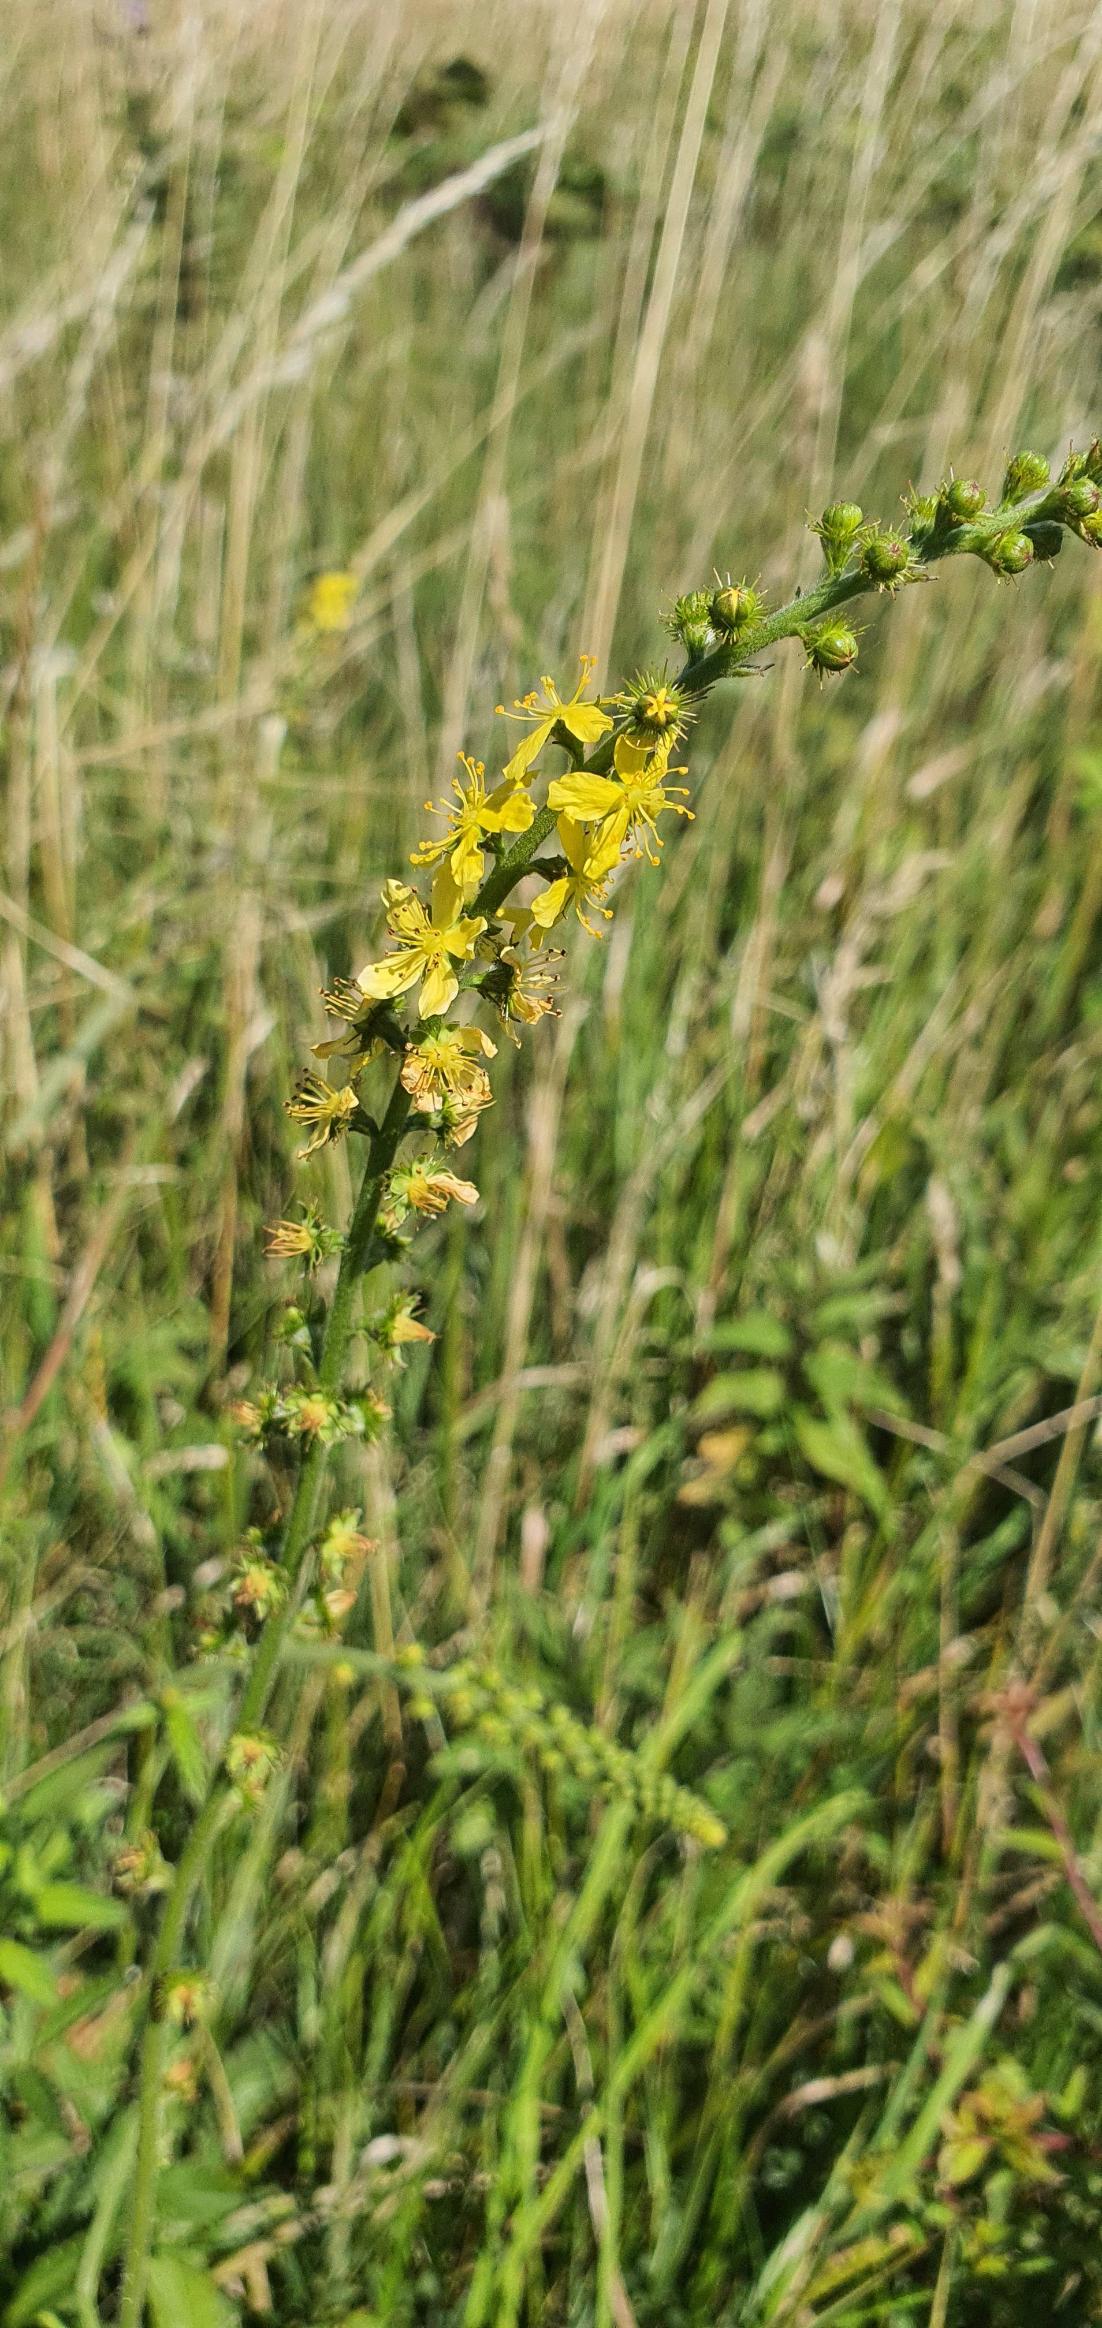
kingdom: Plantae
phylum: Tracheophyta
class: Magnoliopsida
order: Rosales
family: Rosaceae
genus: Agrimonia
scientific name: Agrimonia eupatoria
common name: Almindelig agermåne
